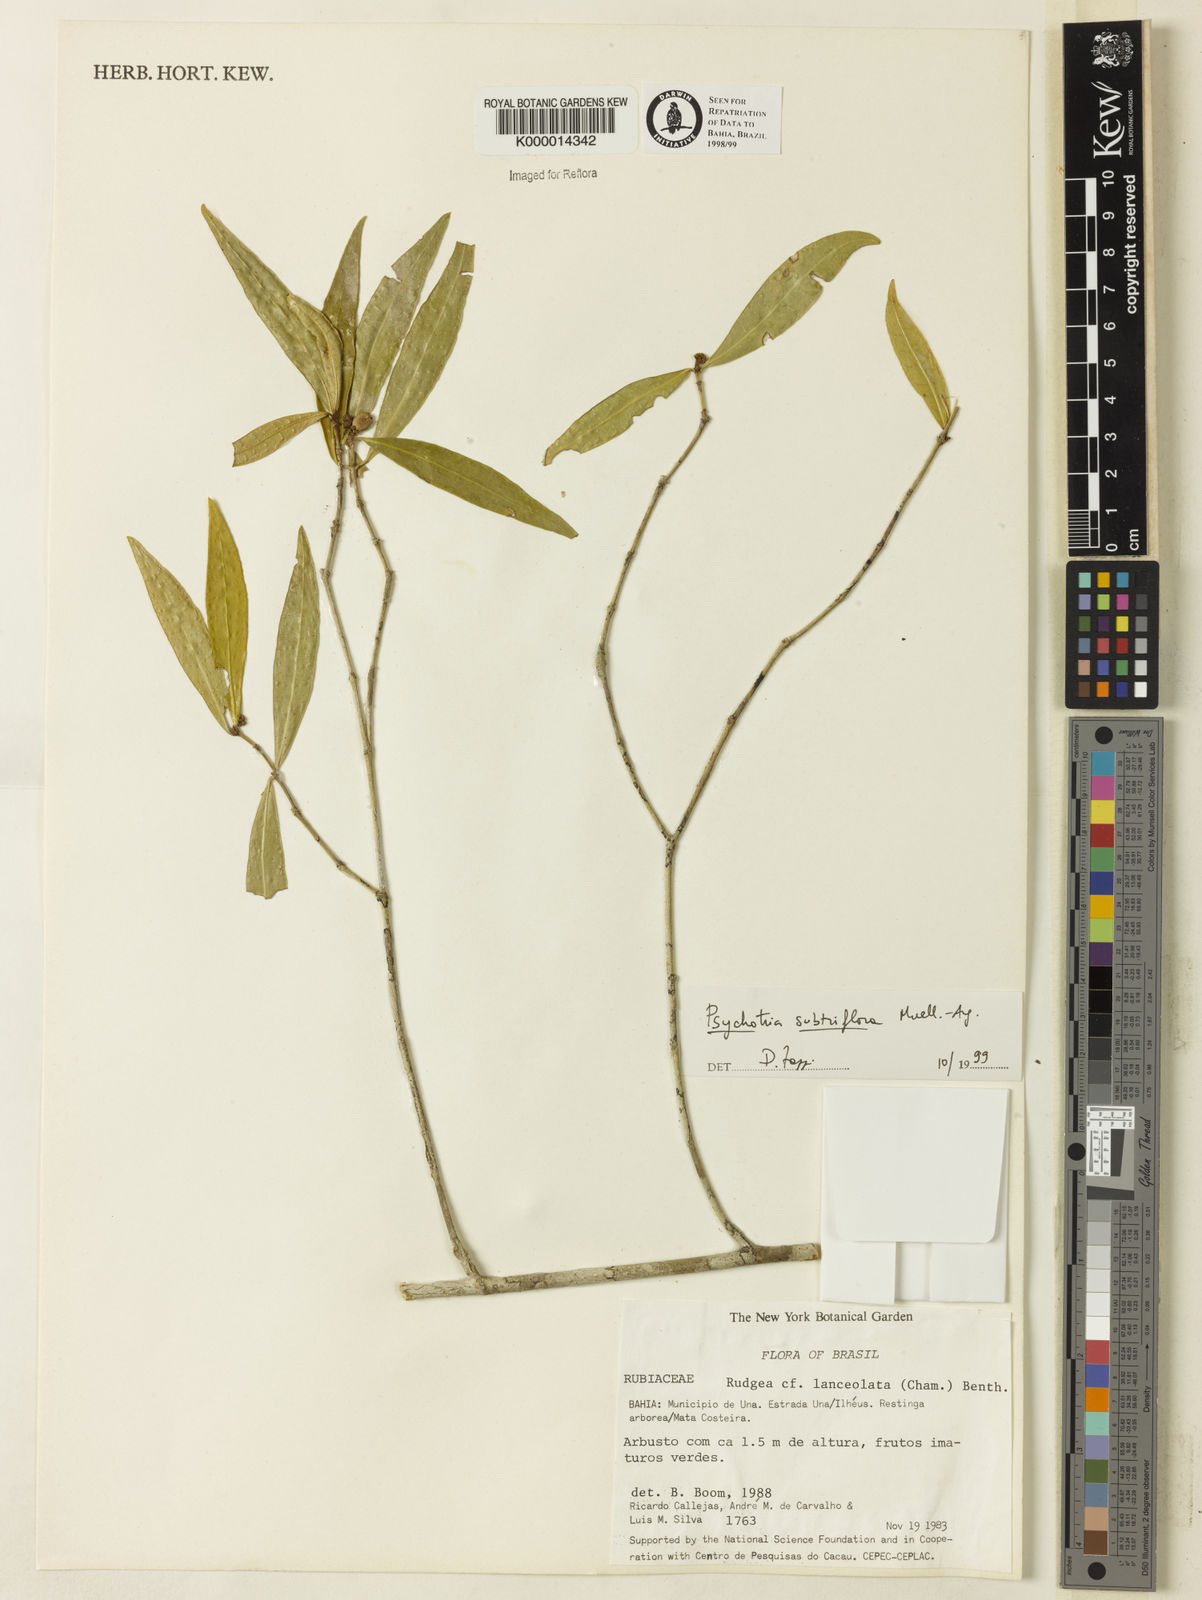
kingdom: Plantae
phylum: Tracheophyta
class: Magnoliopsida
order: Gentianales
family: Rubiaceae
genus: Psychotria
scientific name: Psychotria subtriflora
